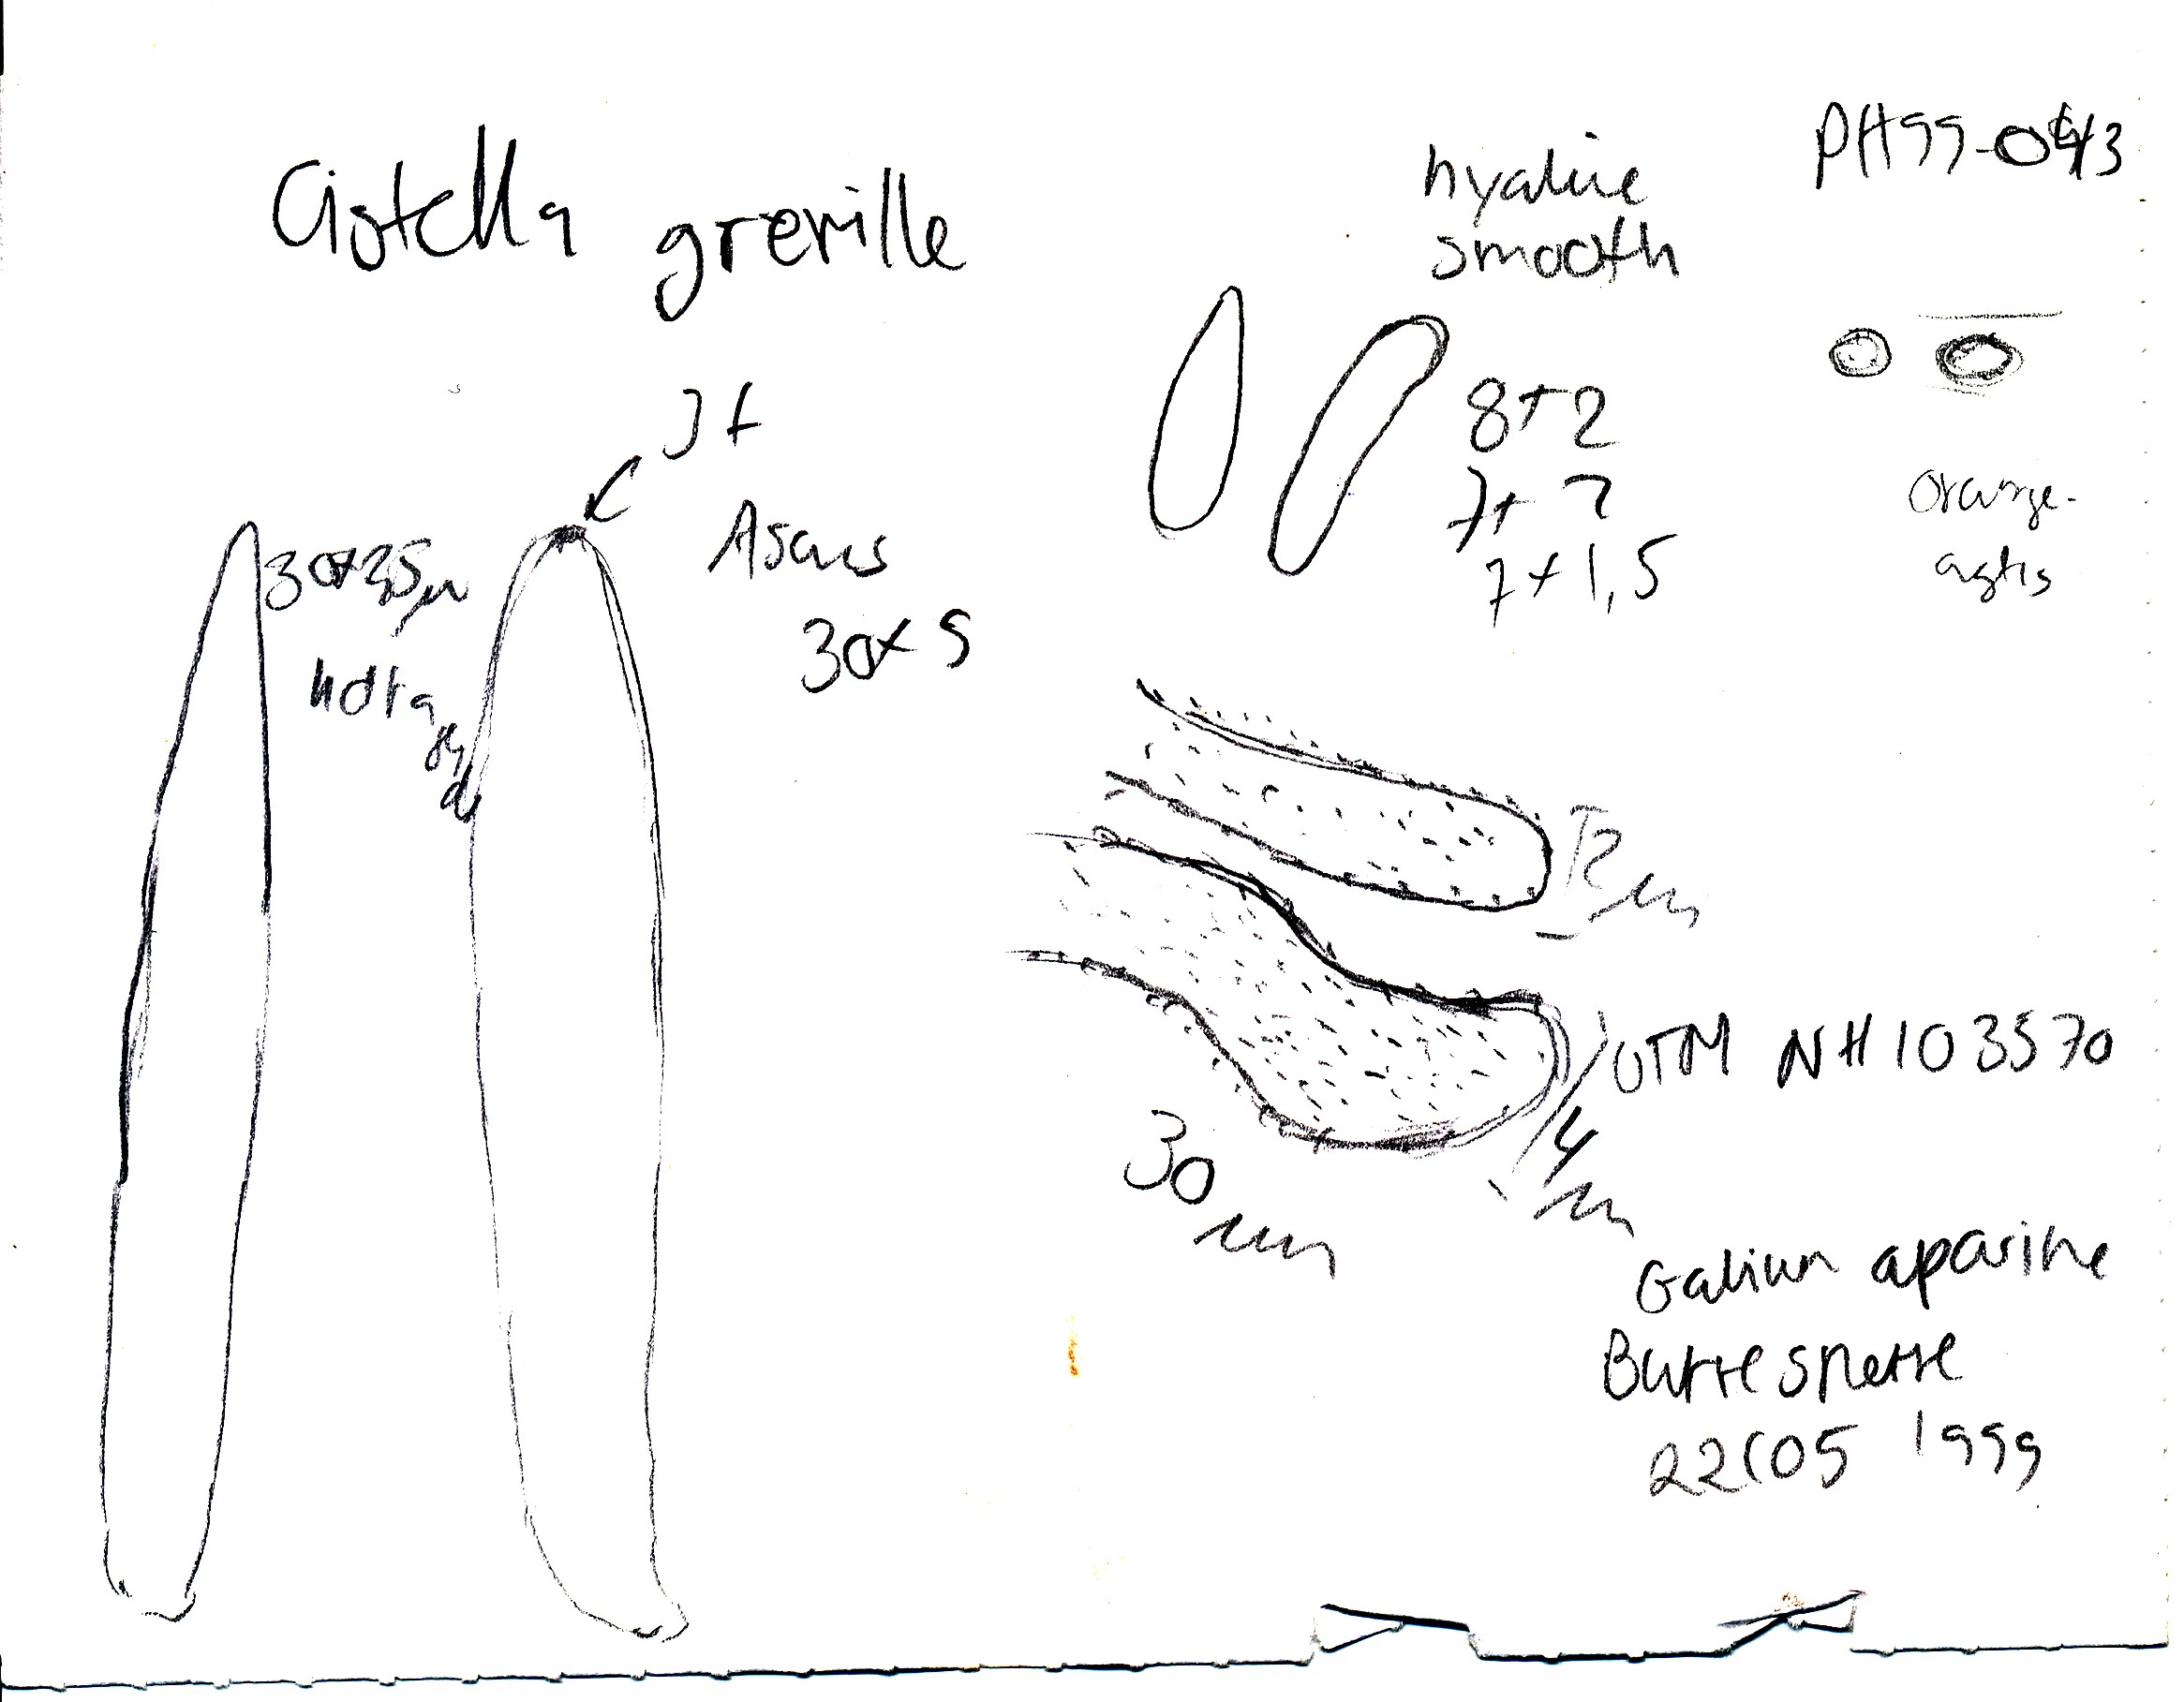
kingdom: Fungi
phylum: Ascomycota
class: Leotiomycetes
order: Helotiales
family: Hyaloscyphaceae
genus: Cistella
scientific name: Cistella grevillei
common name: lædergul sirskive
